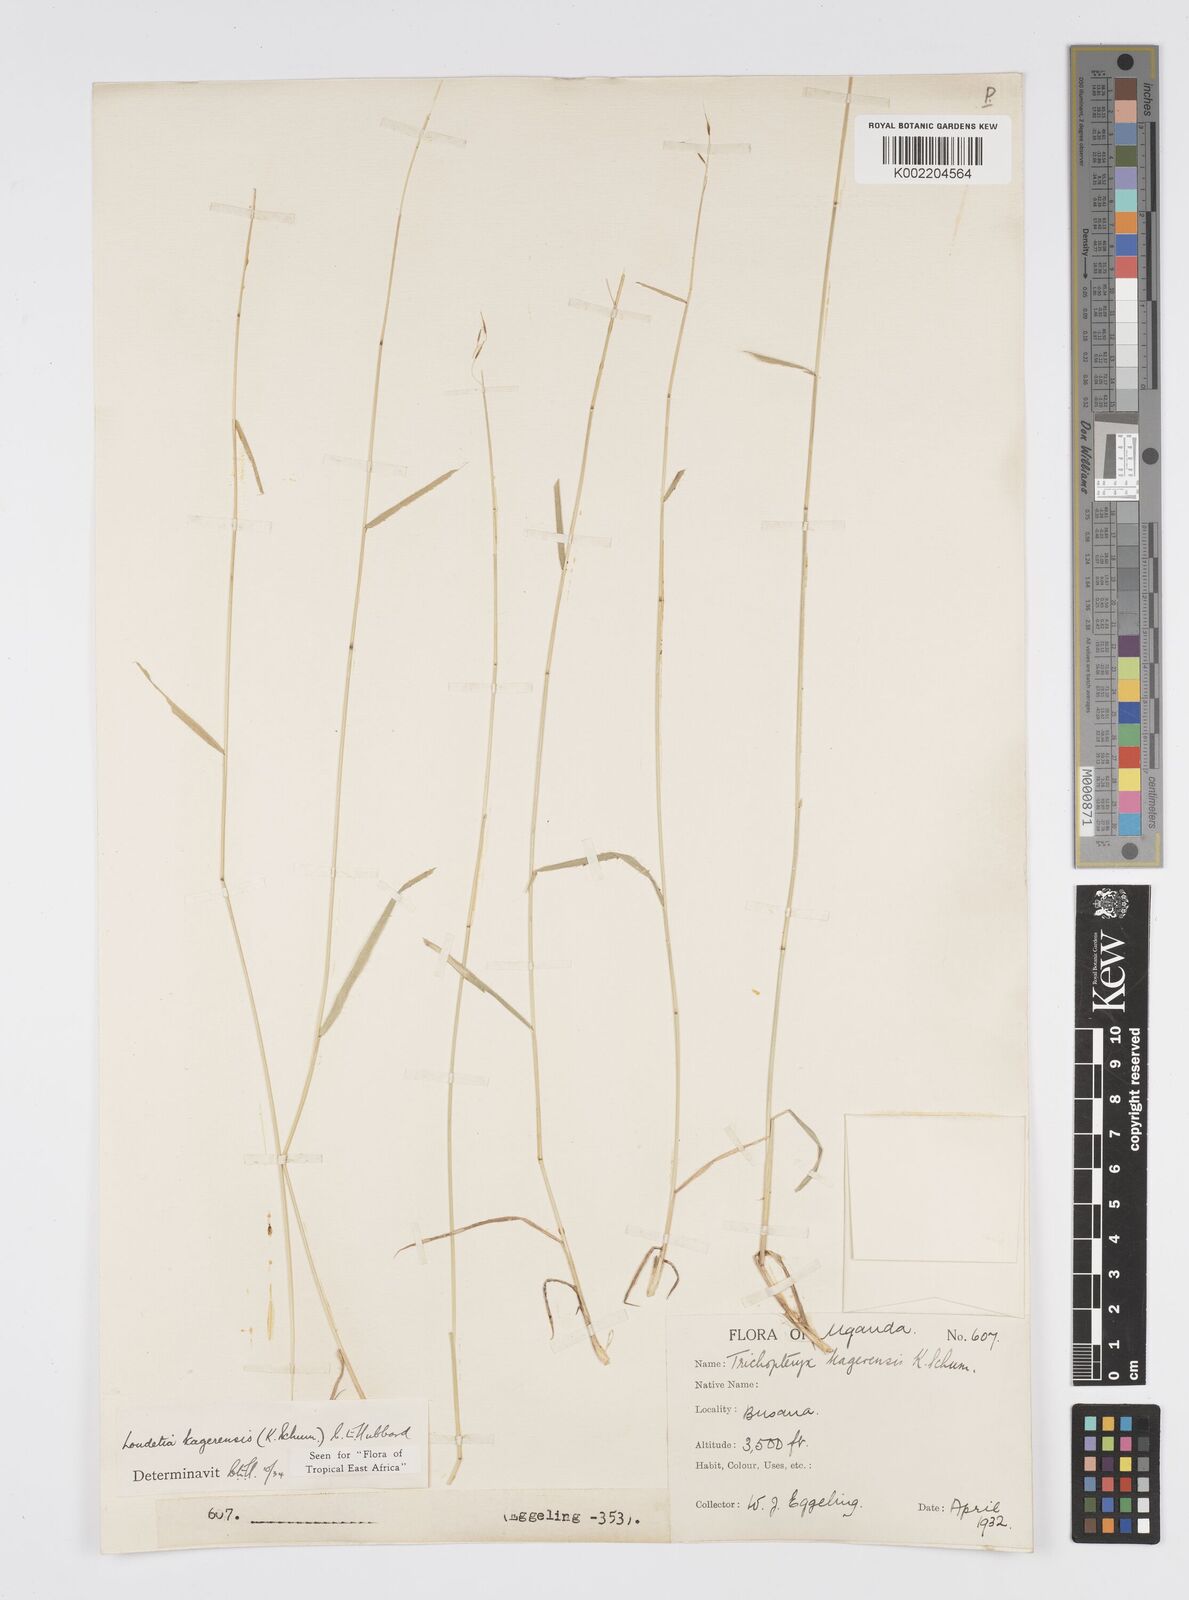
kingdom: Plantae
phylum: Tracheophyta
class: Liliopsida
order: Poales
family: Poaceae
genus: Loudetia
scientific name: Loudetia kagerensis
